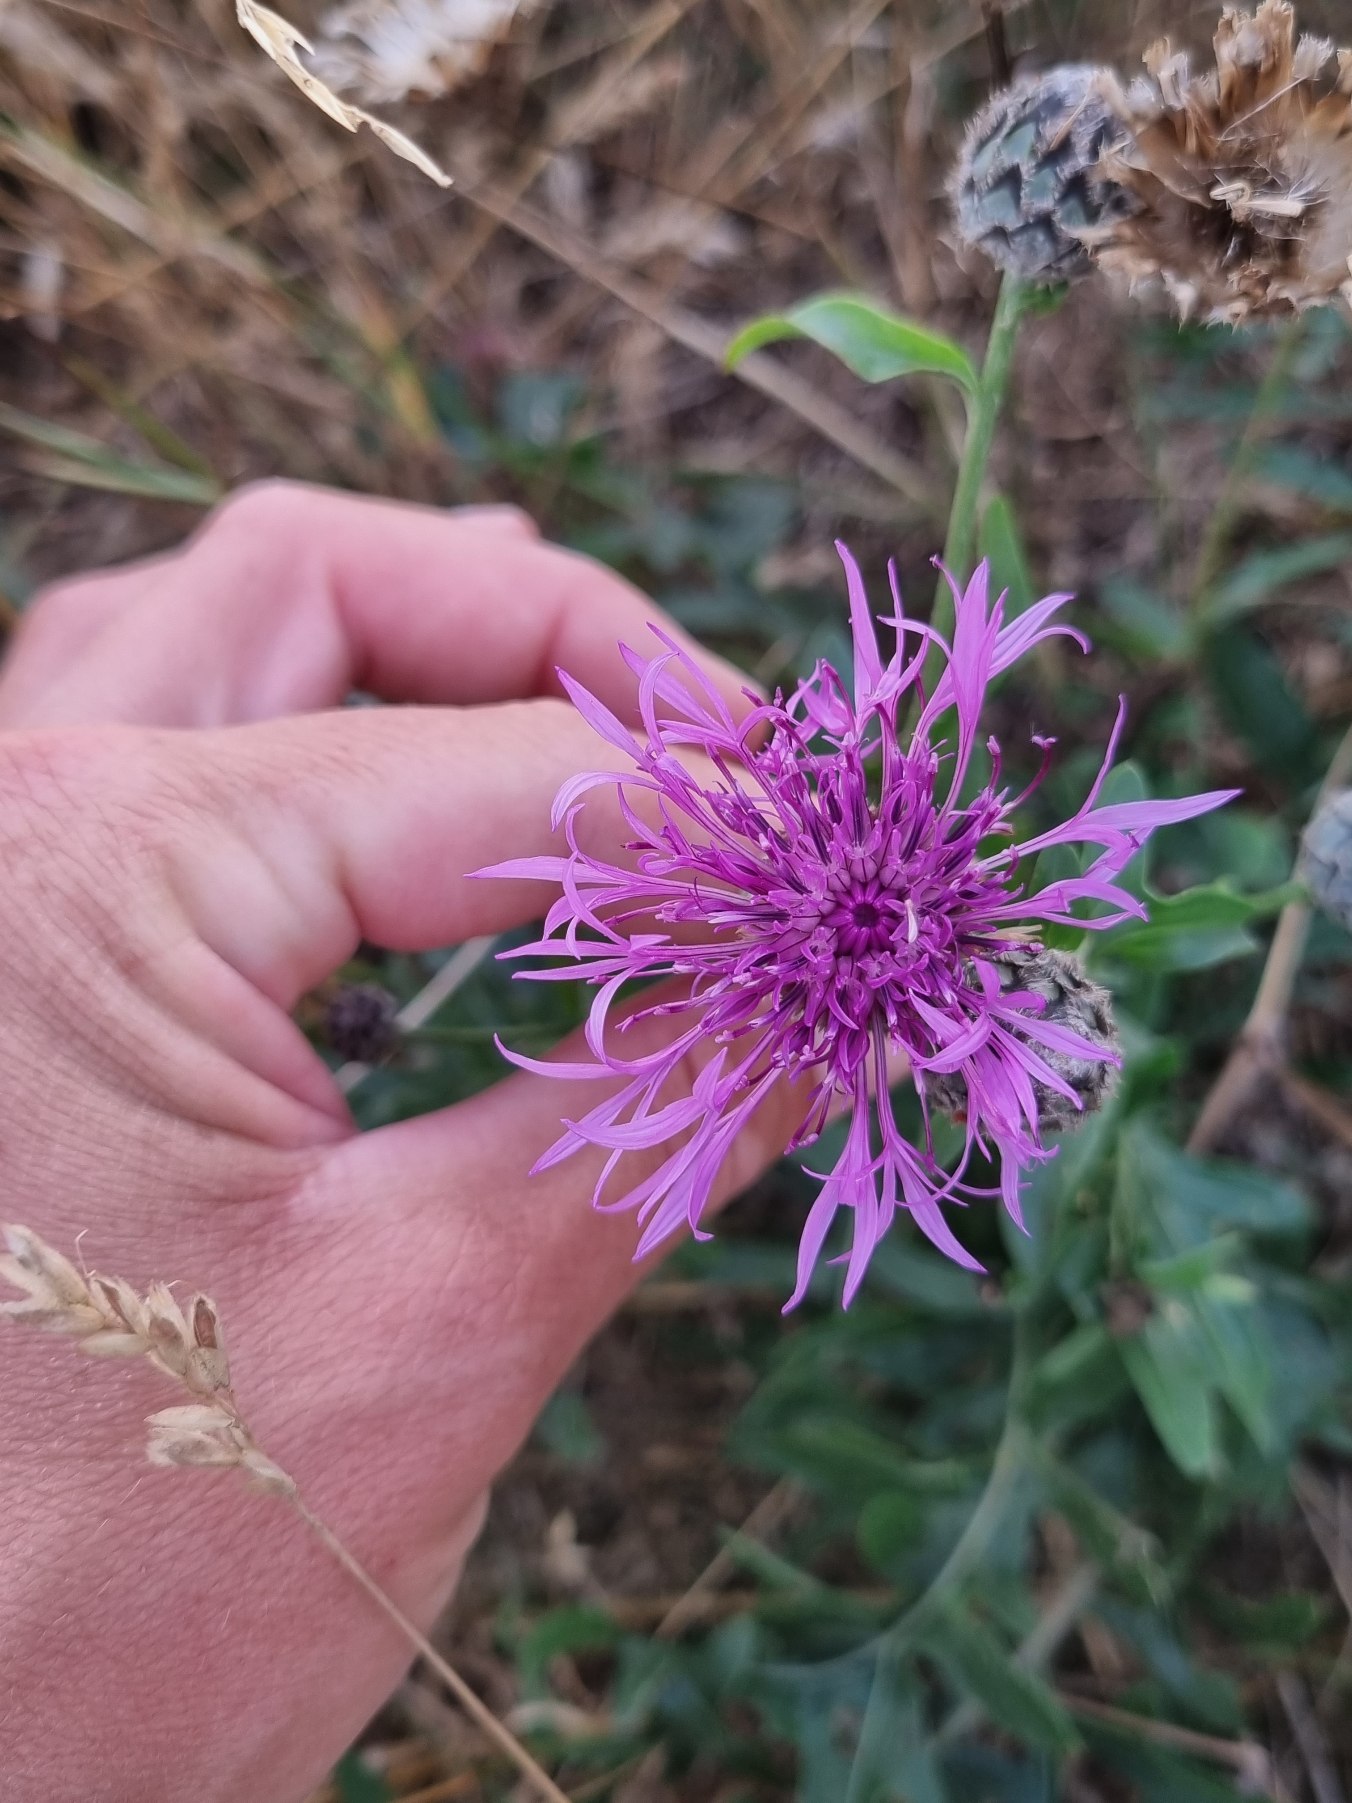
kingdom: Plantae
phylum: Tracheophyta
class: Magnoliopsida
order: Asterales
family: Asteraceae
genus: Centaurea
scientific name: Centaurea scabiosa
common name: Stor knopurt
